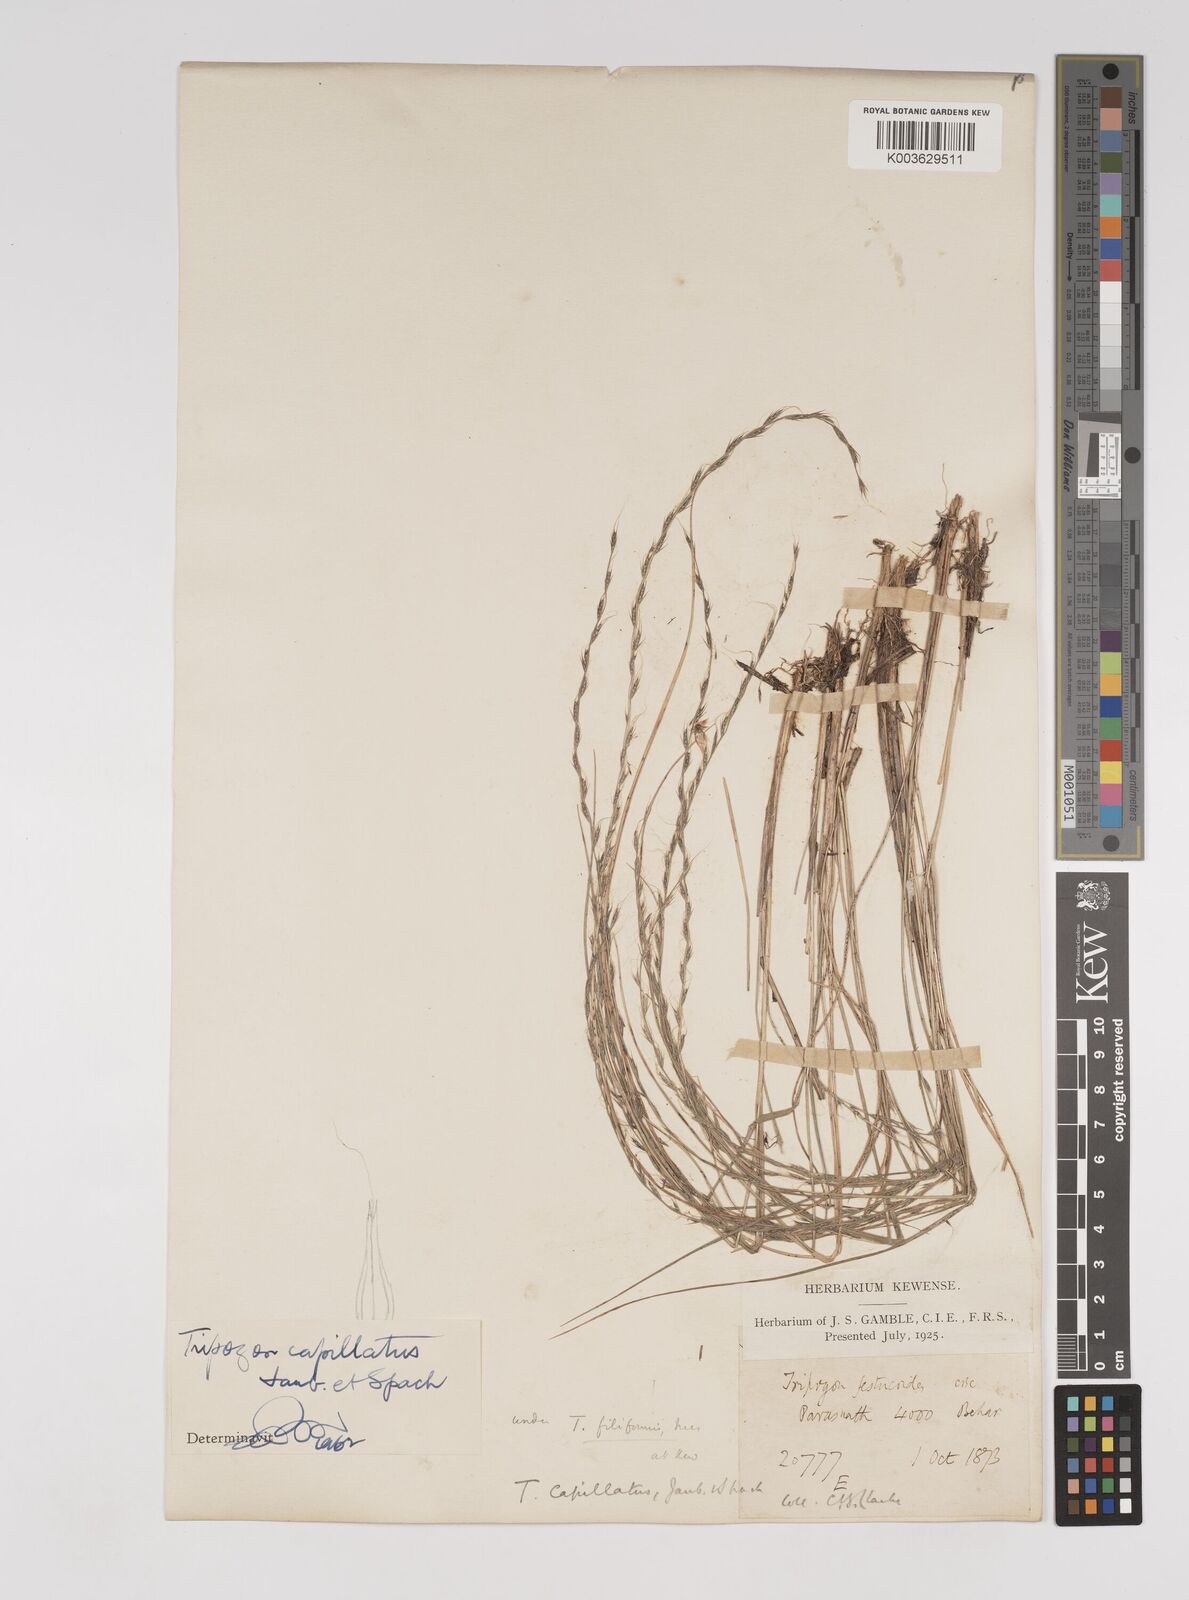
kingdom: Plantae
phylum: Tracheophyta
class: Liliopsida
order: Poales
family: Poaceae
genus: Tripogon
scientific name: Tripogon capillatus
